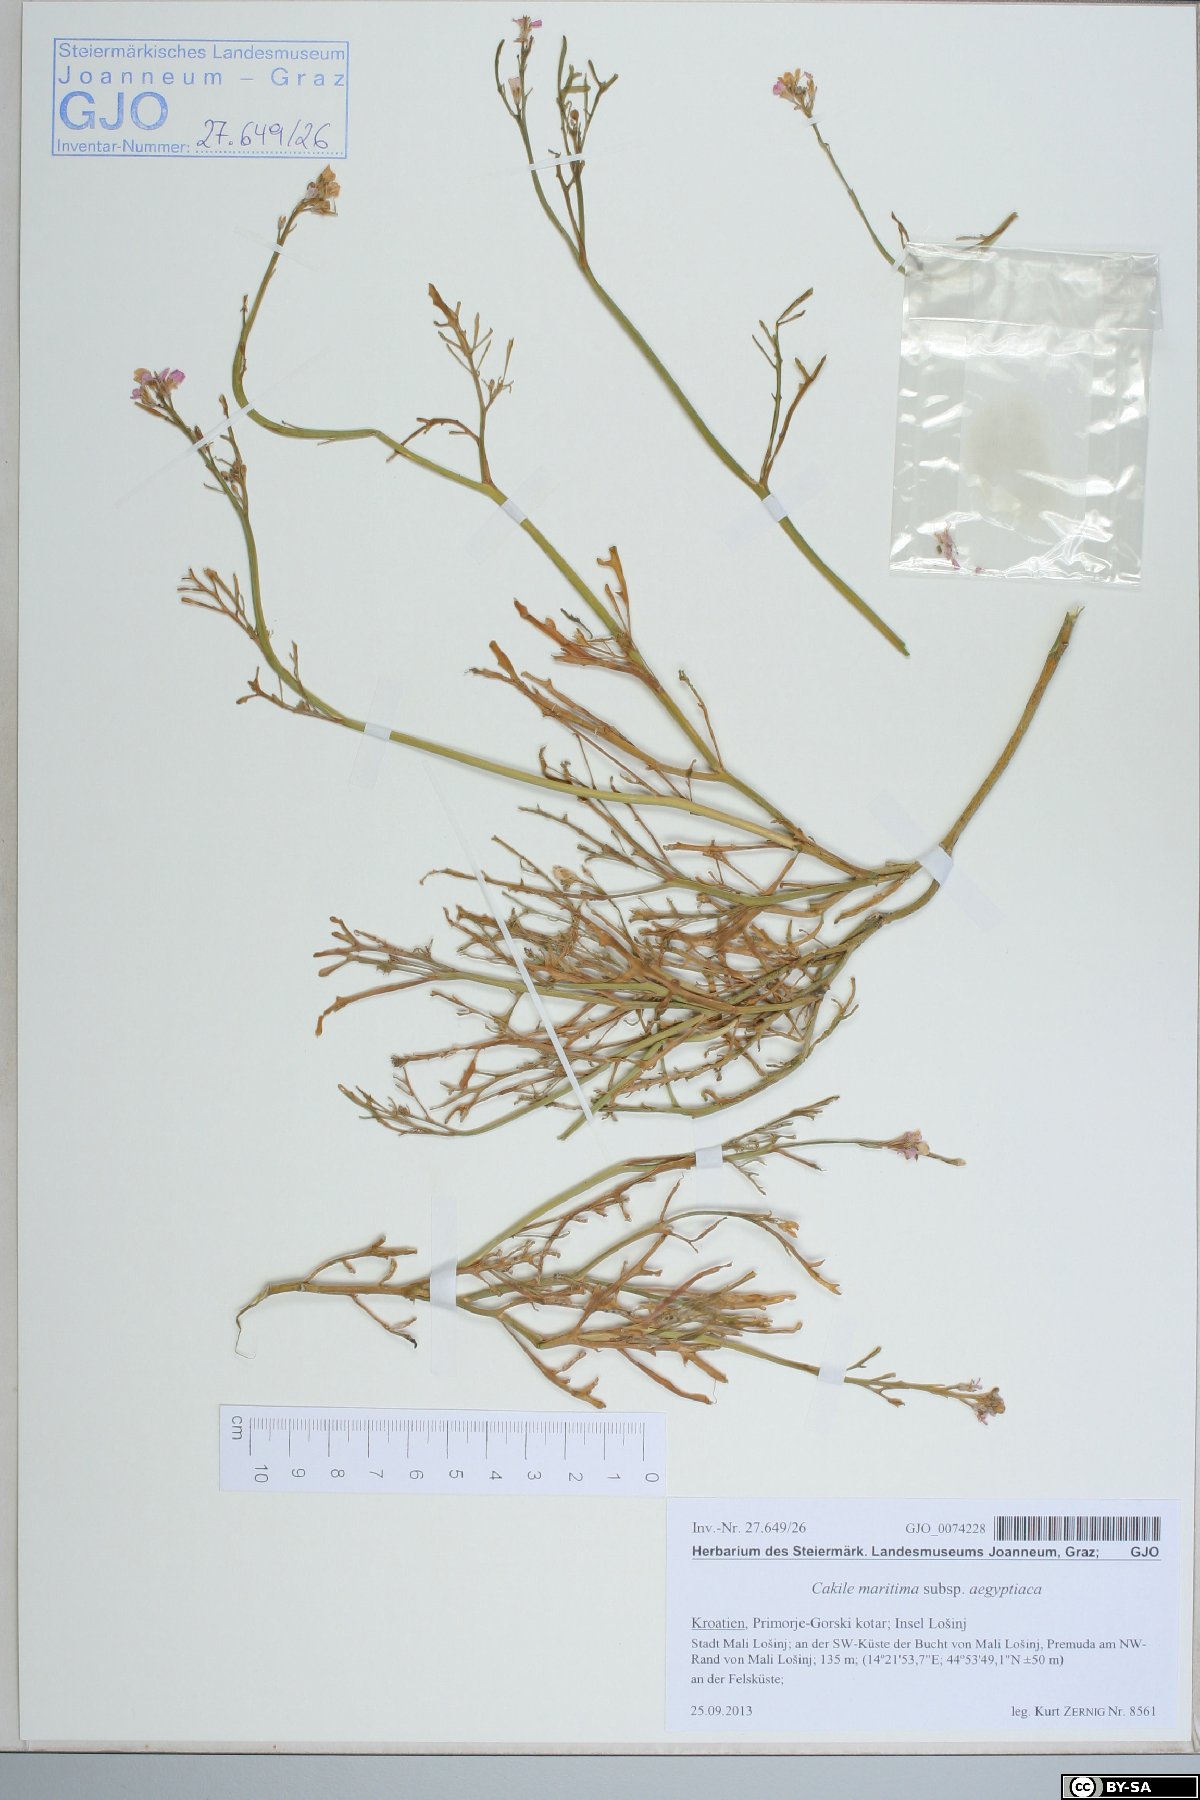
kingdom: Plantae
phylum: Tracheophyta
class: Magnoliopsida
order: Brassicales
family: Brassicaceae
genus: Cakile
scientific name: Cakile maritima
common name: Sea rocket
